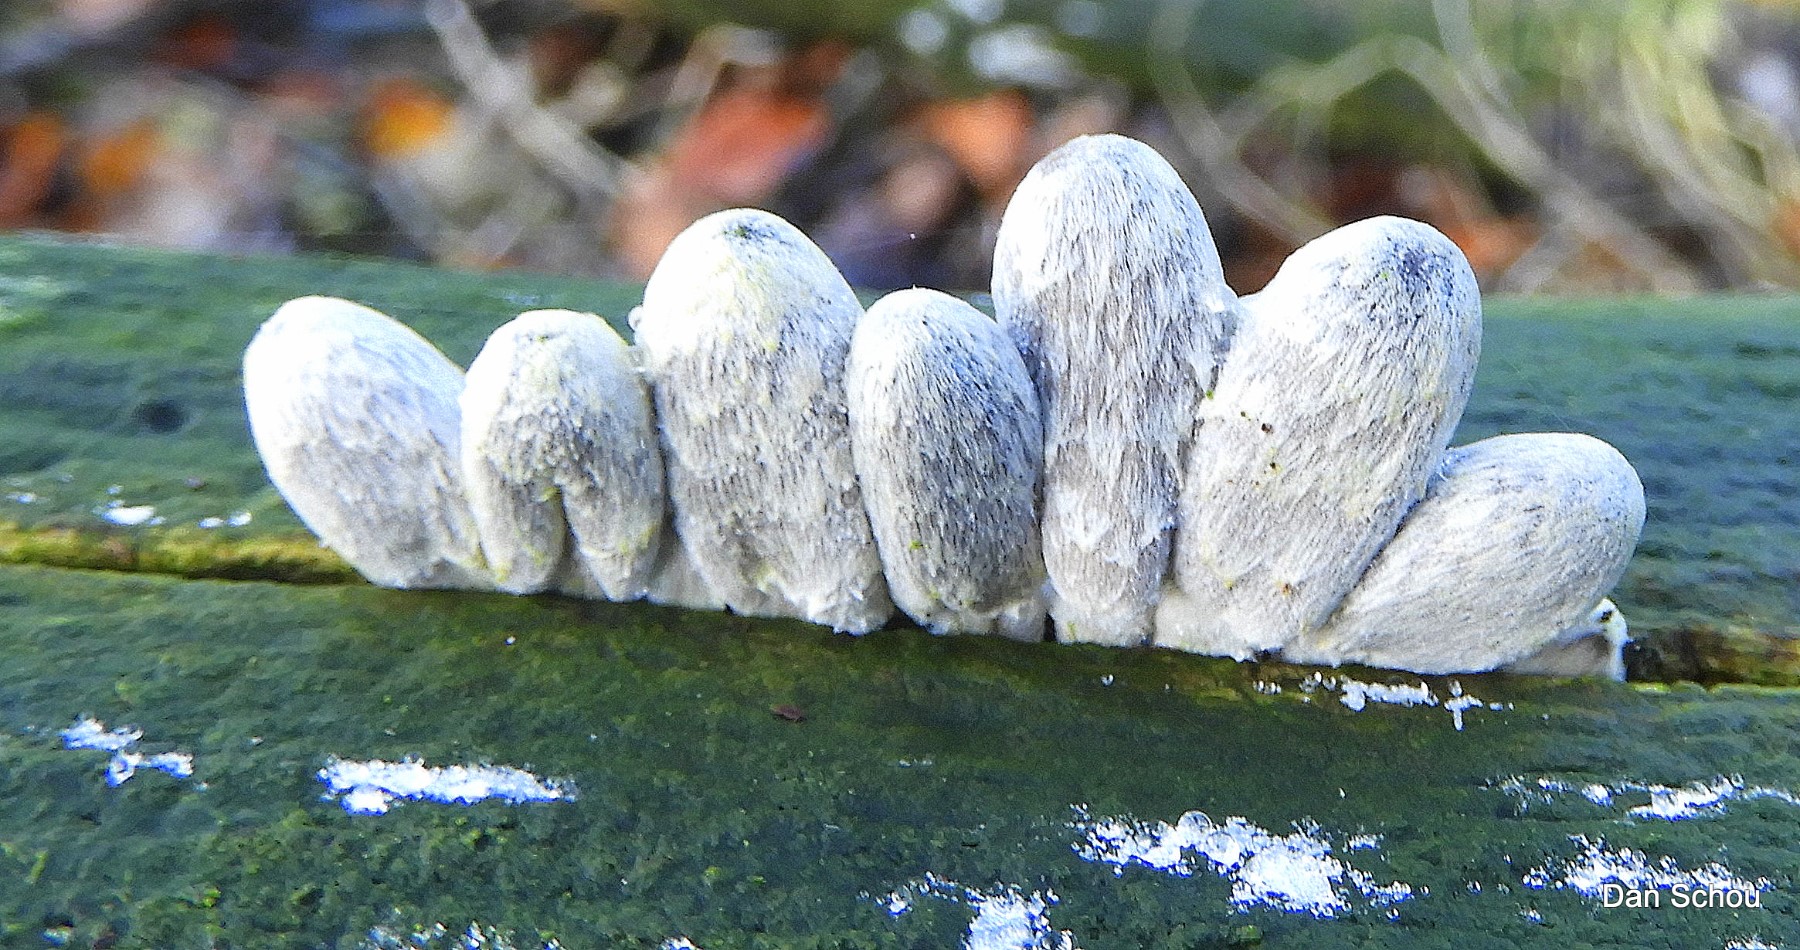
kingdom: Fungi
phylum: Basidiomycota
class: Agaricomycetes
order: Agaricales
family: Psathyrellaceae
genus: Coprinopsis
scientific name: Coprinopsis echinospora
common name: fuglemøg-blækhat
